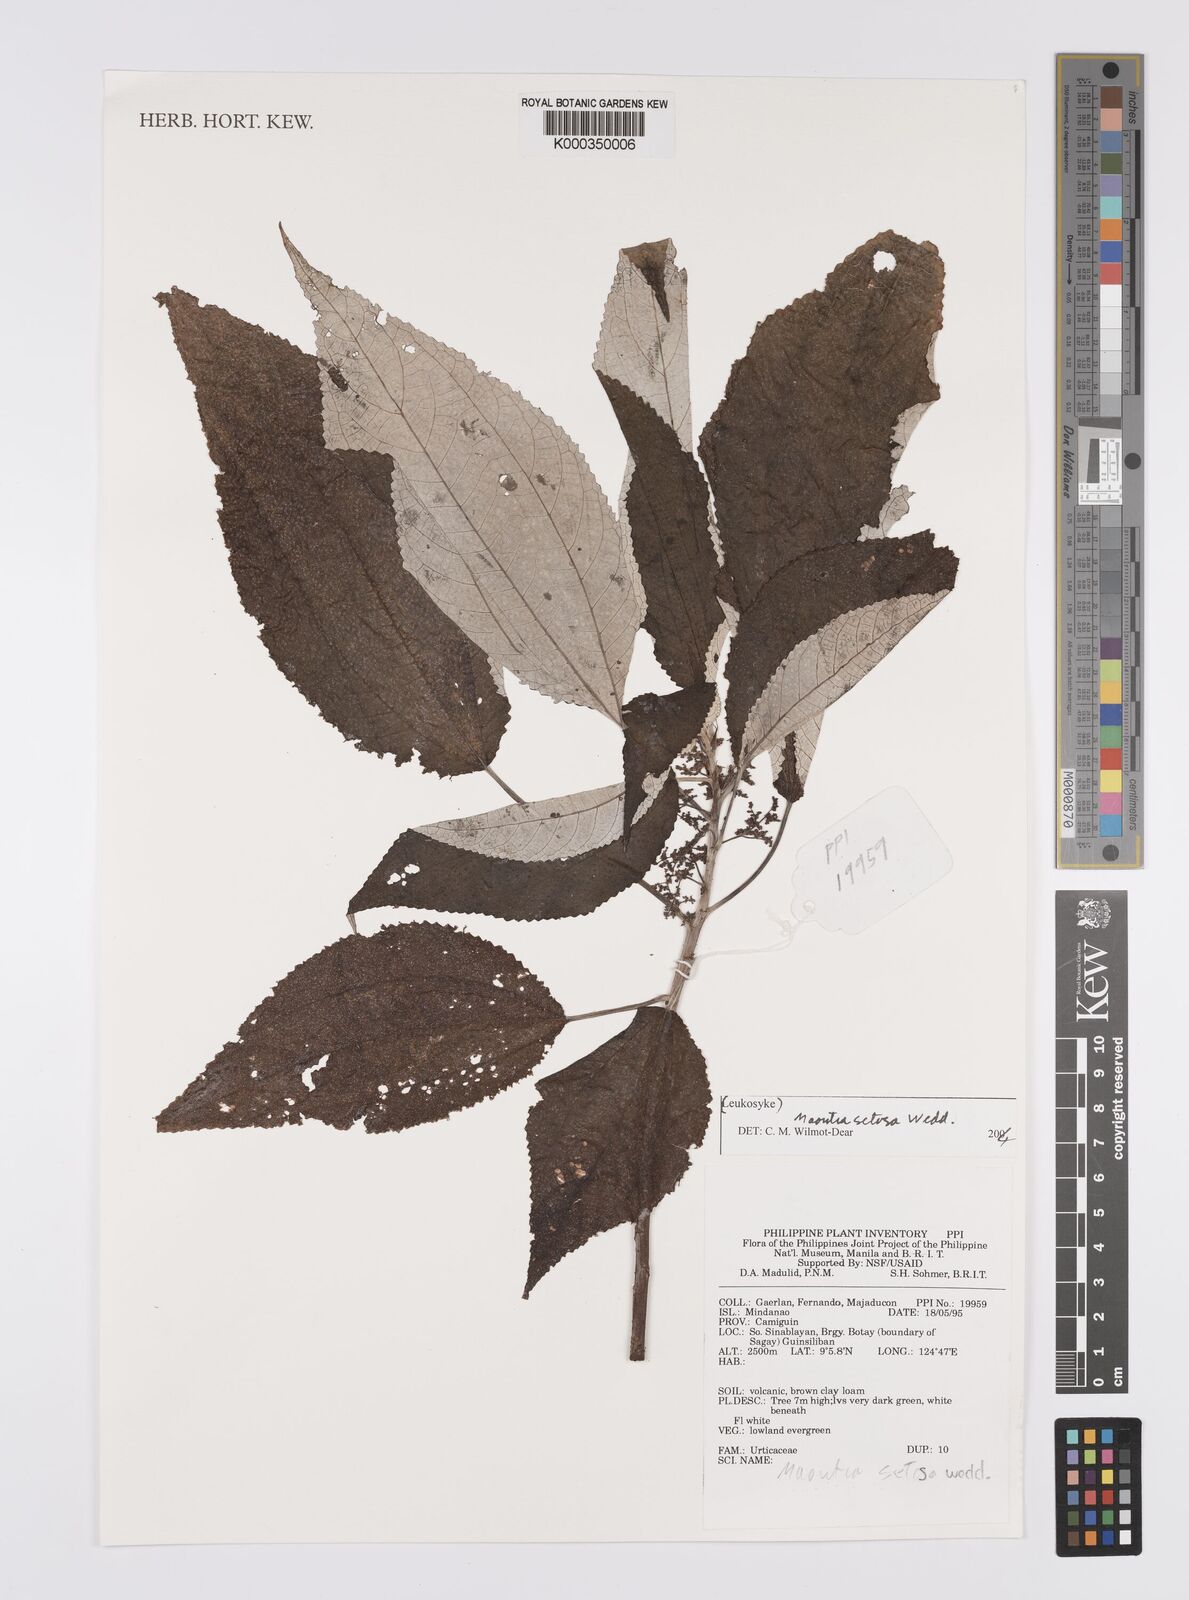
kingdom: Plantae
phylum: Tracheophyta
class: Magnoliopsida
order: Rosales
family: Urticaceae
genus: Maoutia
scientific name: Maoutia setosa
